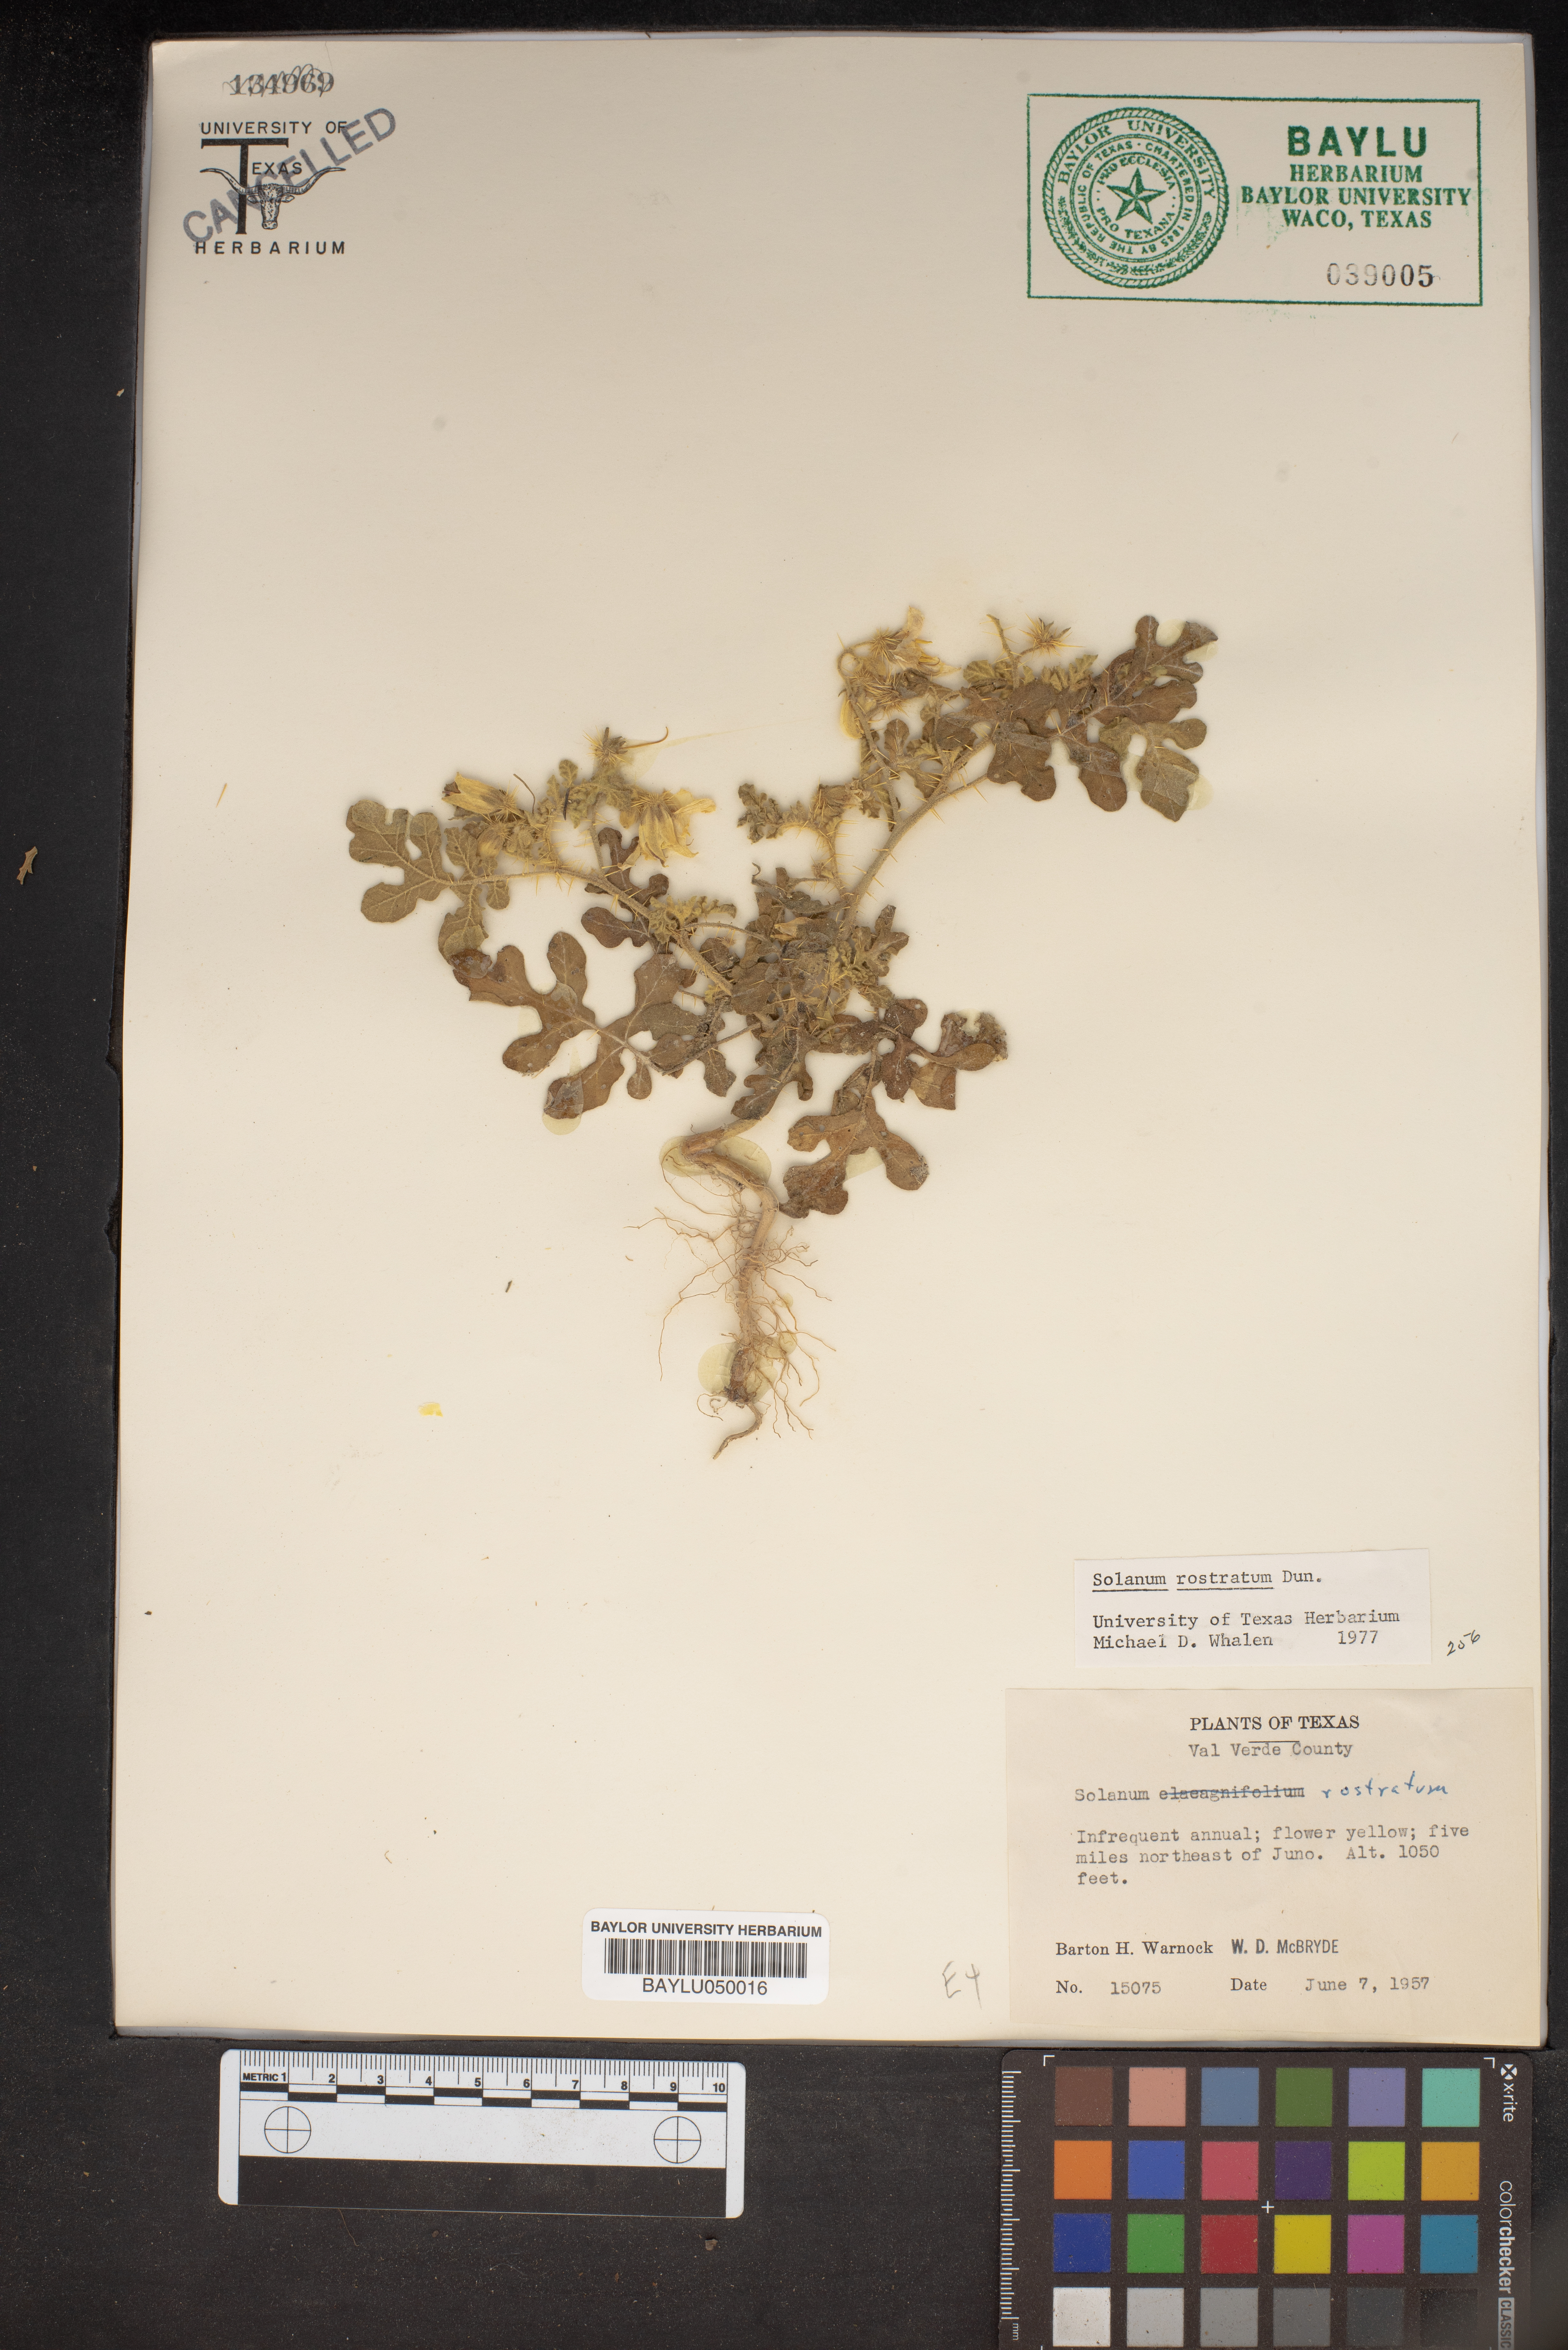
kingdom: Plantae
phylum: Tracheophyta
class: Magnoliopsida
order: Solanales
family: Solanaceae
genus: Solanum
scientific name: Solanum angustifolium
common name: Buffalobur nightshade
